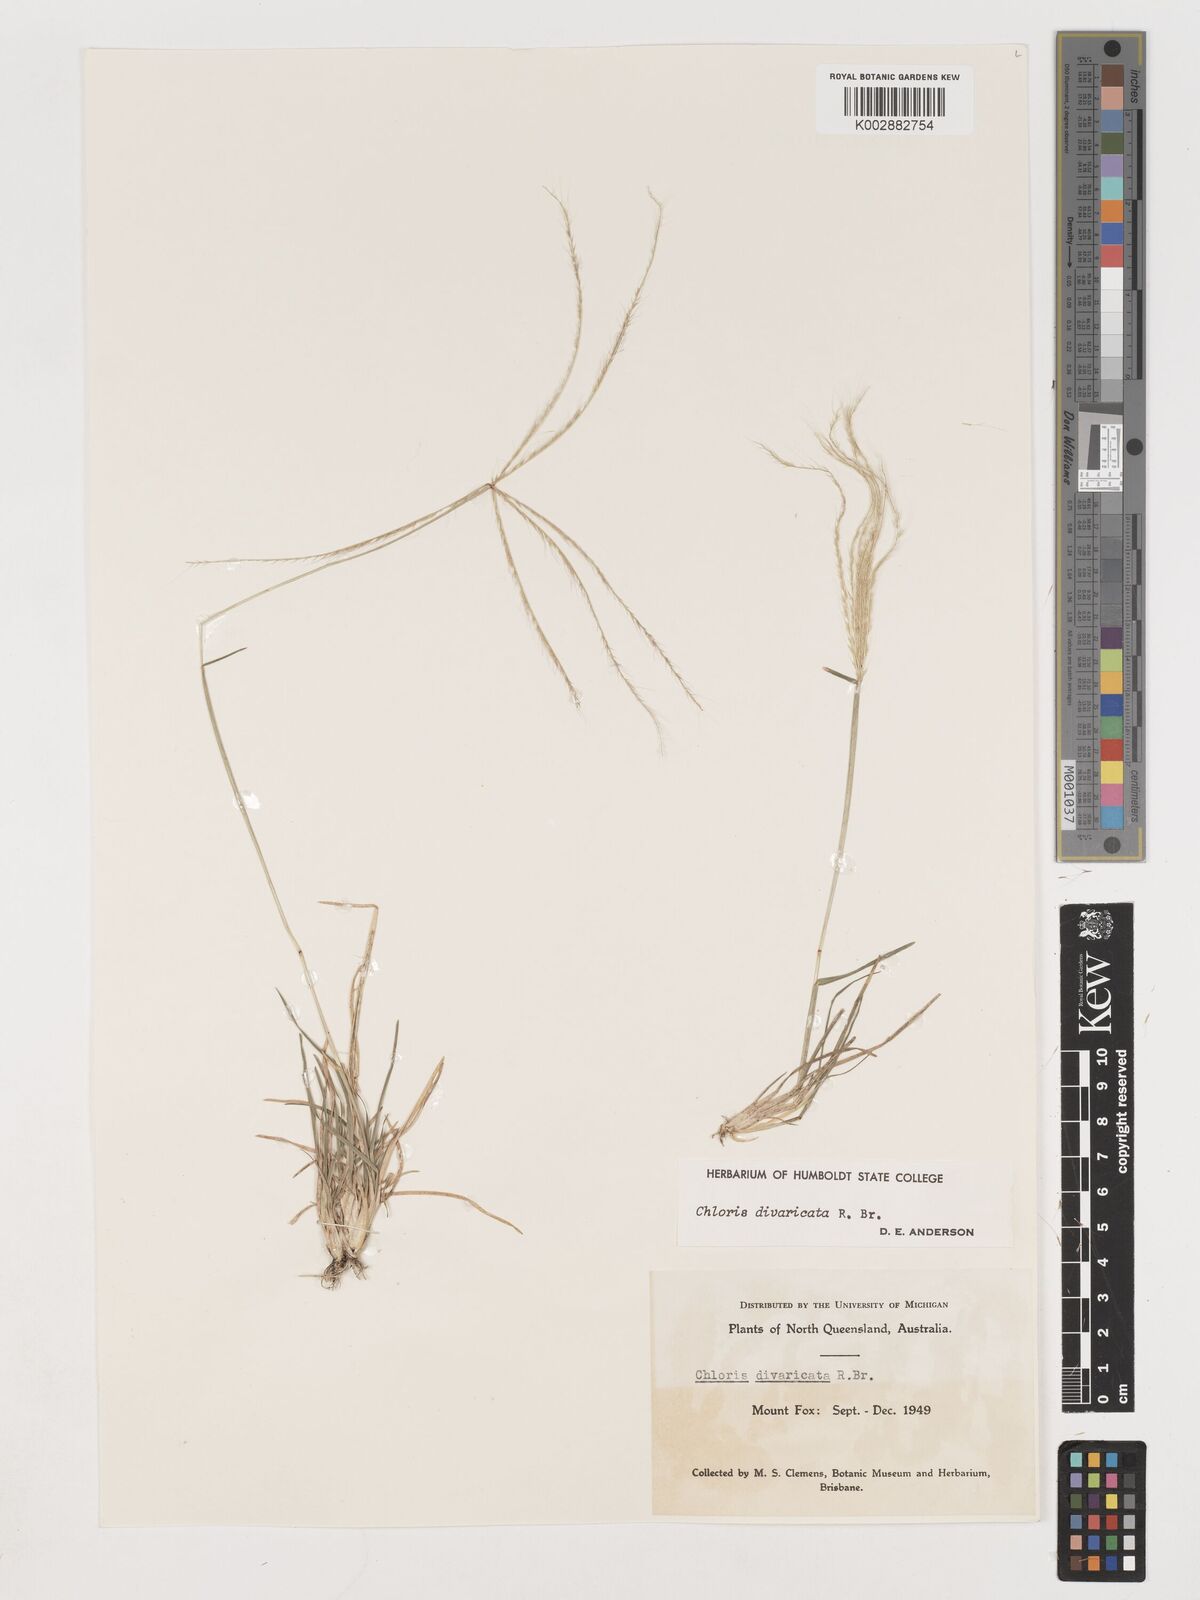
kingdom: Plantae
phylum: Tracheophyta
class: Liliopsida
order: Poales
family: Poaceae
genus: Chloris
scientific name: Chloris divaricata
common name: Spreading windmill grass
